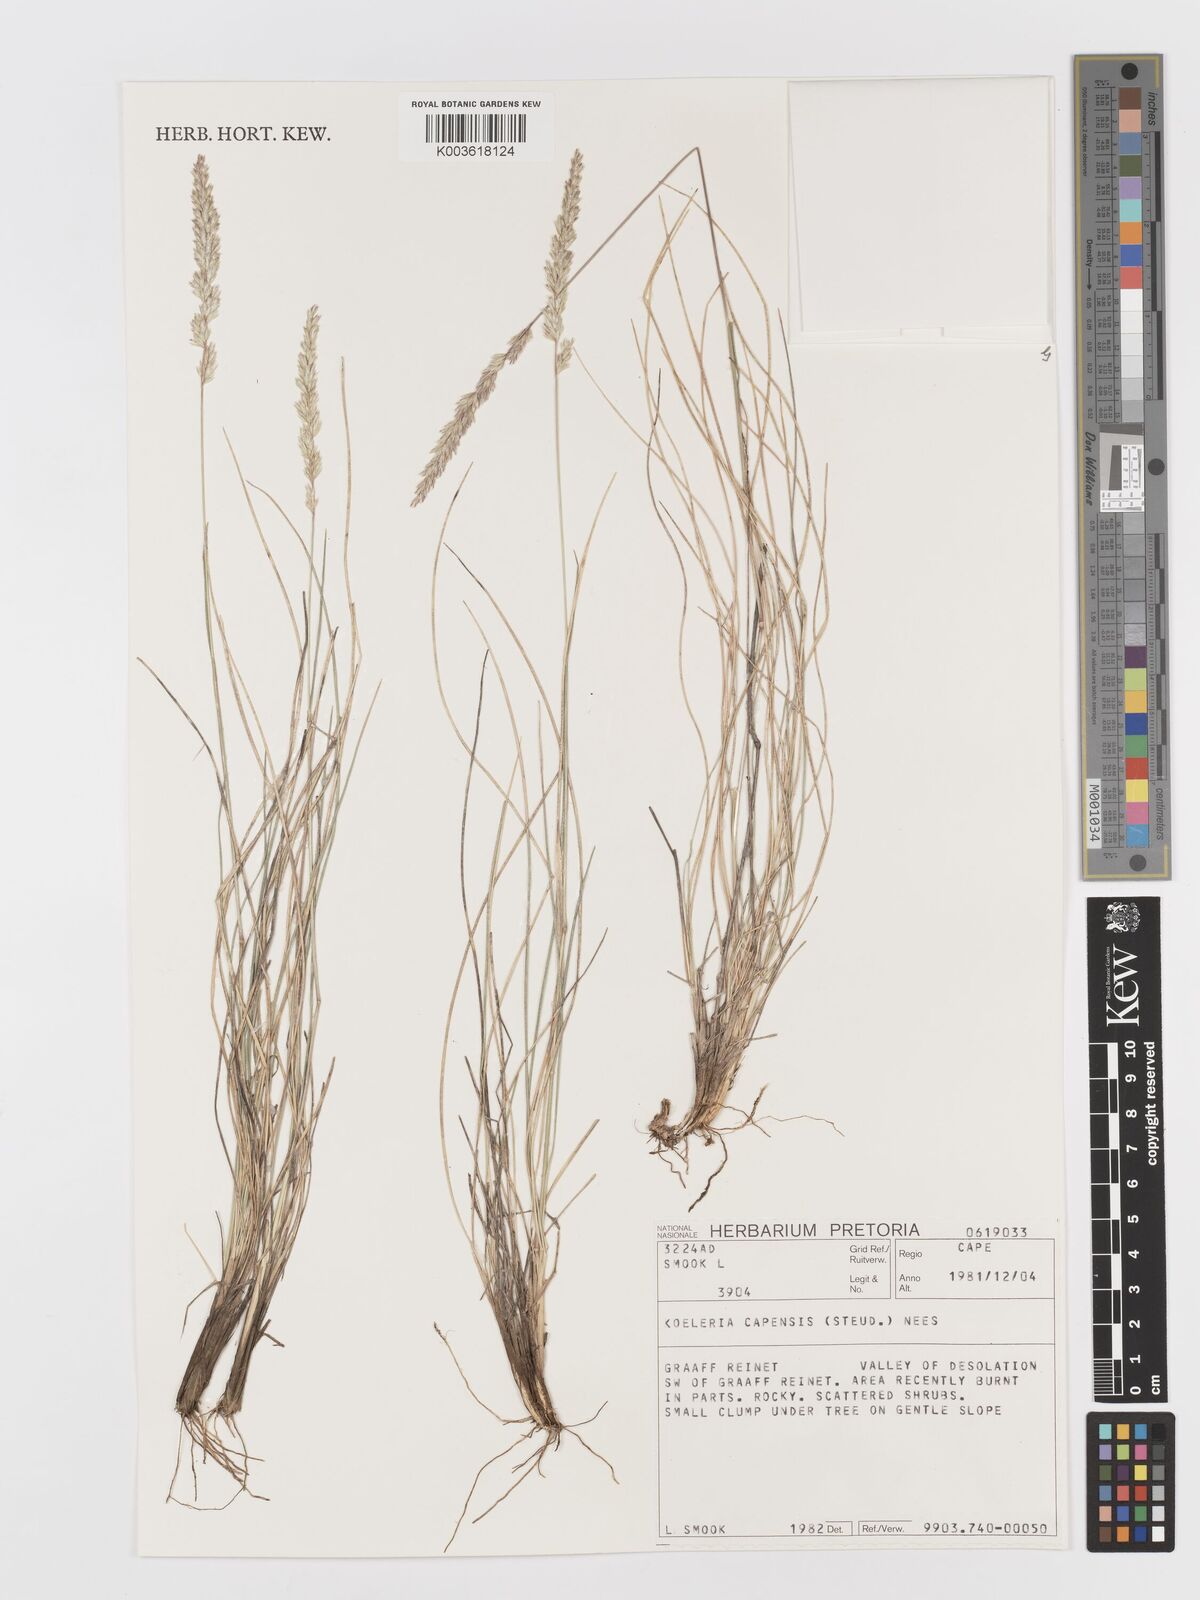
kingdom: Plantae
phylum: Tracheophyta
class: Liliopsida
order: Poales
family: Poaceae
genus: Koeleria
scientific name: Koeleria capensis
